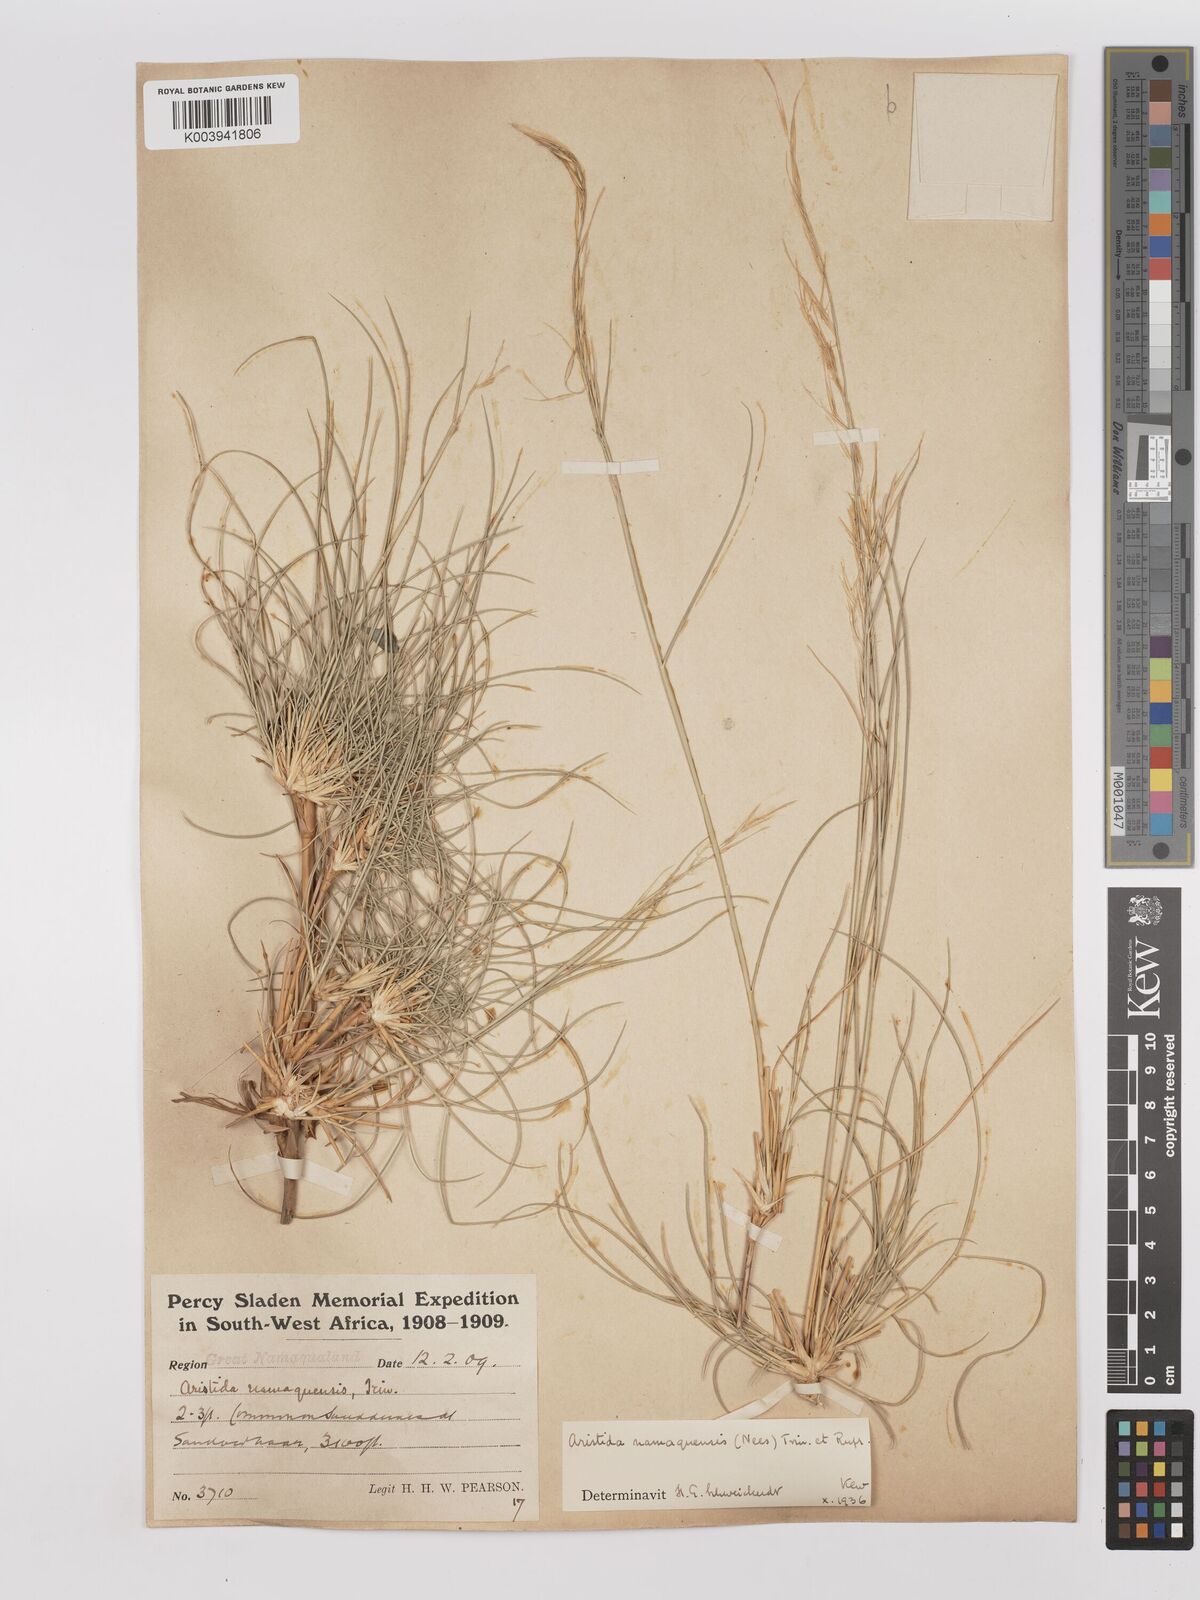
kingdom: Plantae
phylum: Tracheophyta
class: Liliopsida
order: Poales
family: Poaceae
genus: Stipagrostis
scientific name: Stipagrostis namaquensis
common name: River bushman grass
